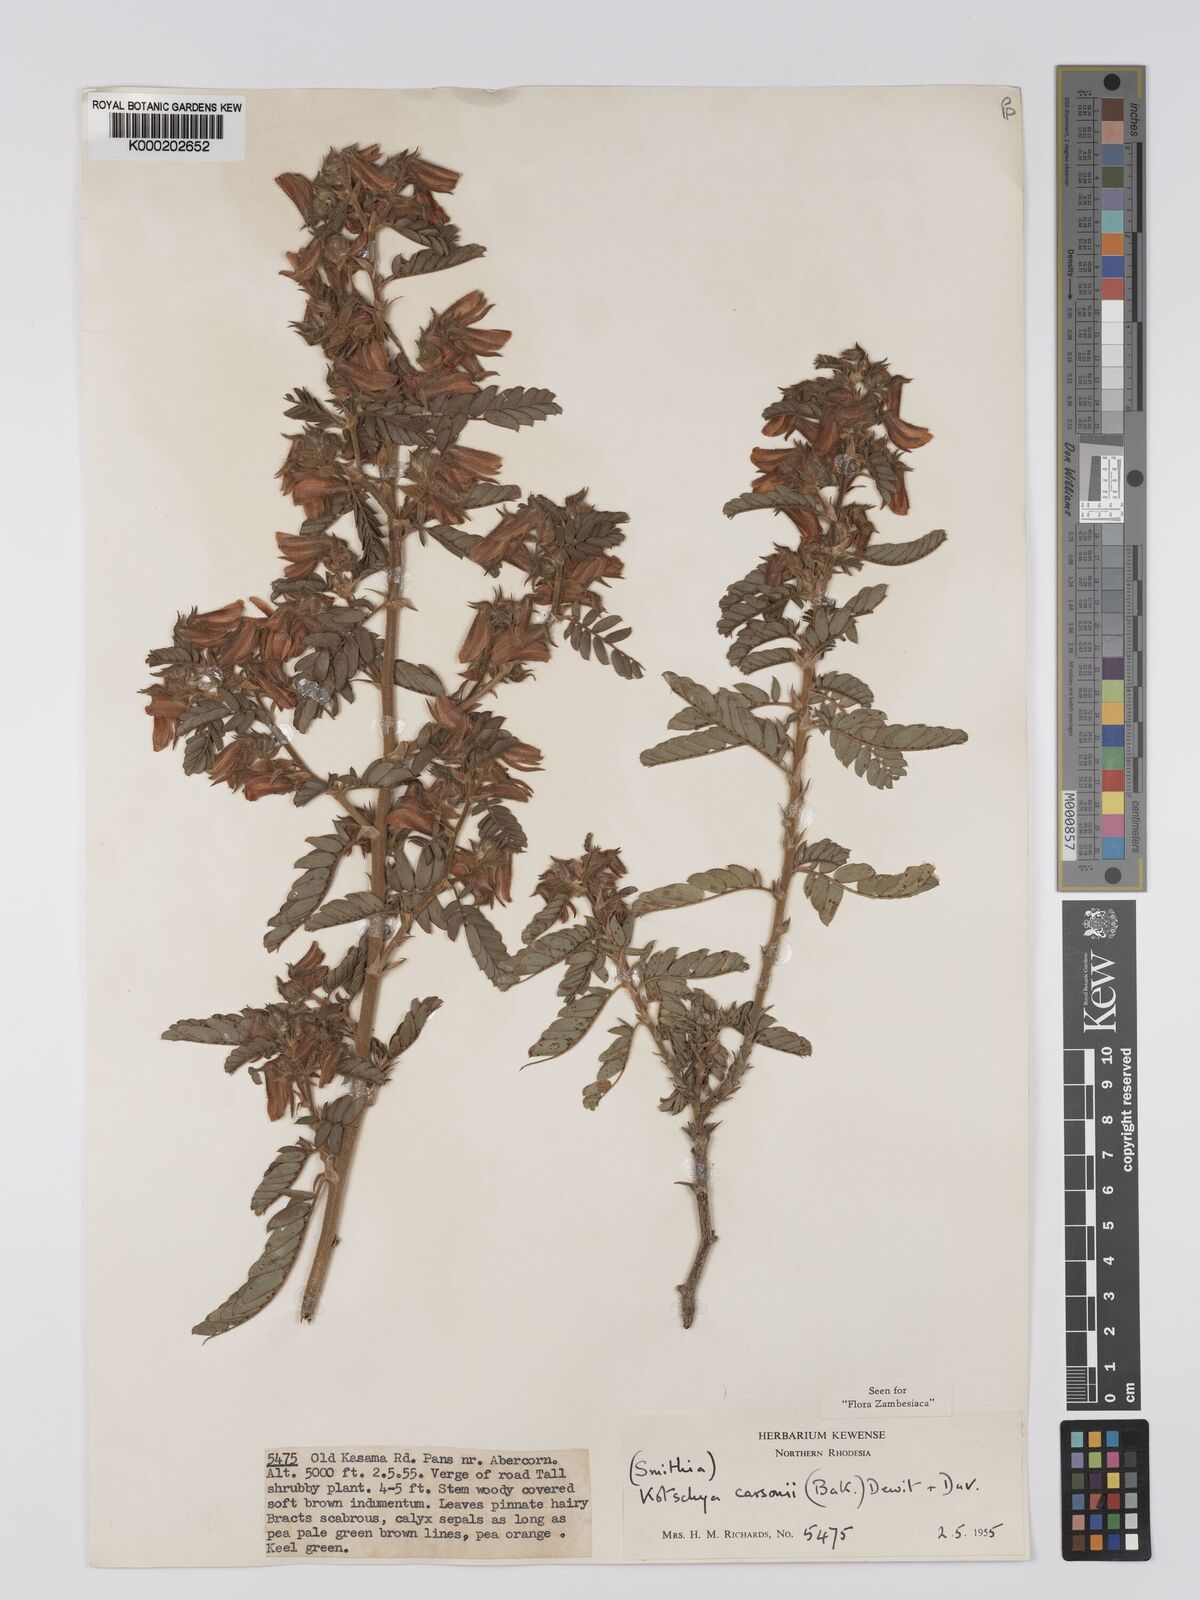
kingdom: Plantae
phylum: Tracheophyta
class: Magnoliopsida
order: Fabales
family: Fabaceae
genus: Kotschya
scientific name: Kotschya carsonii
